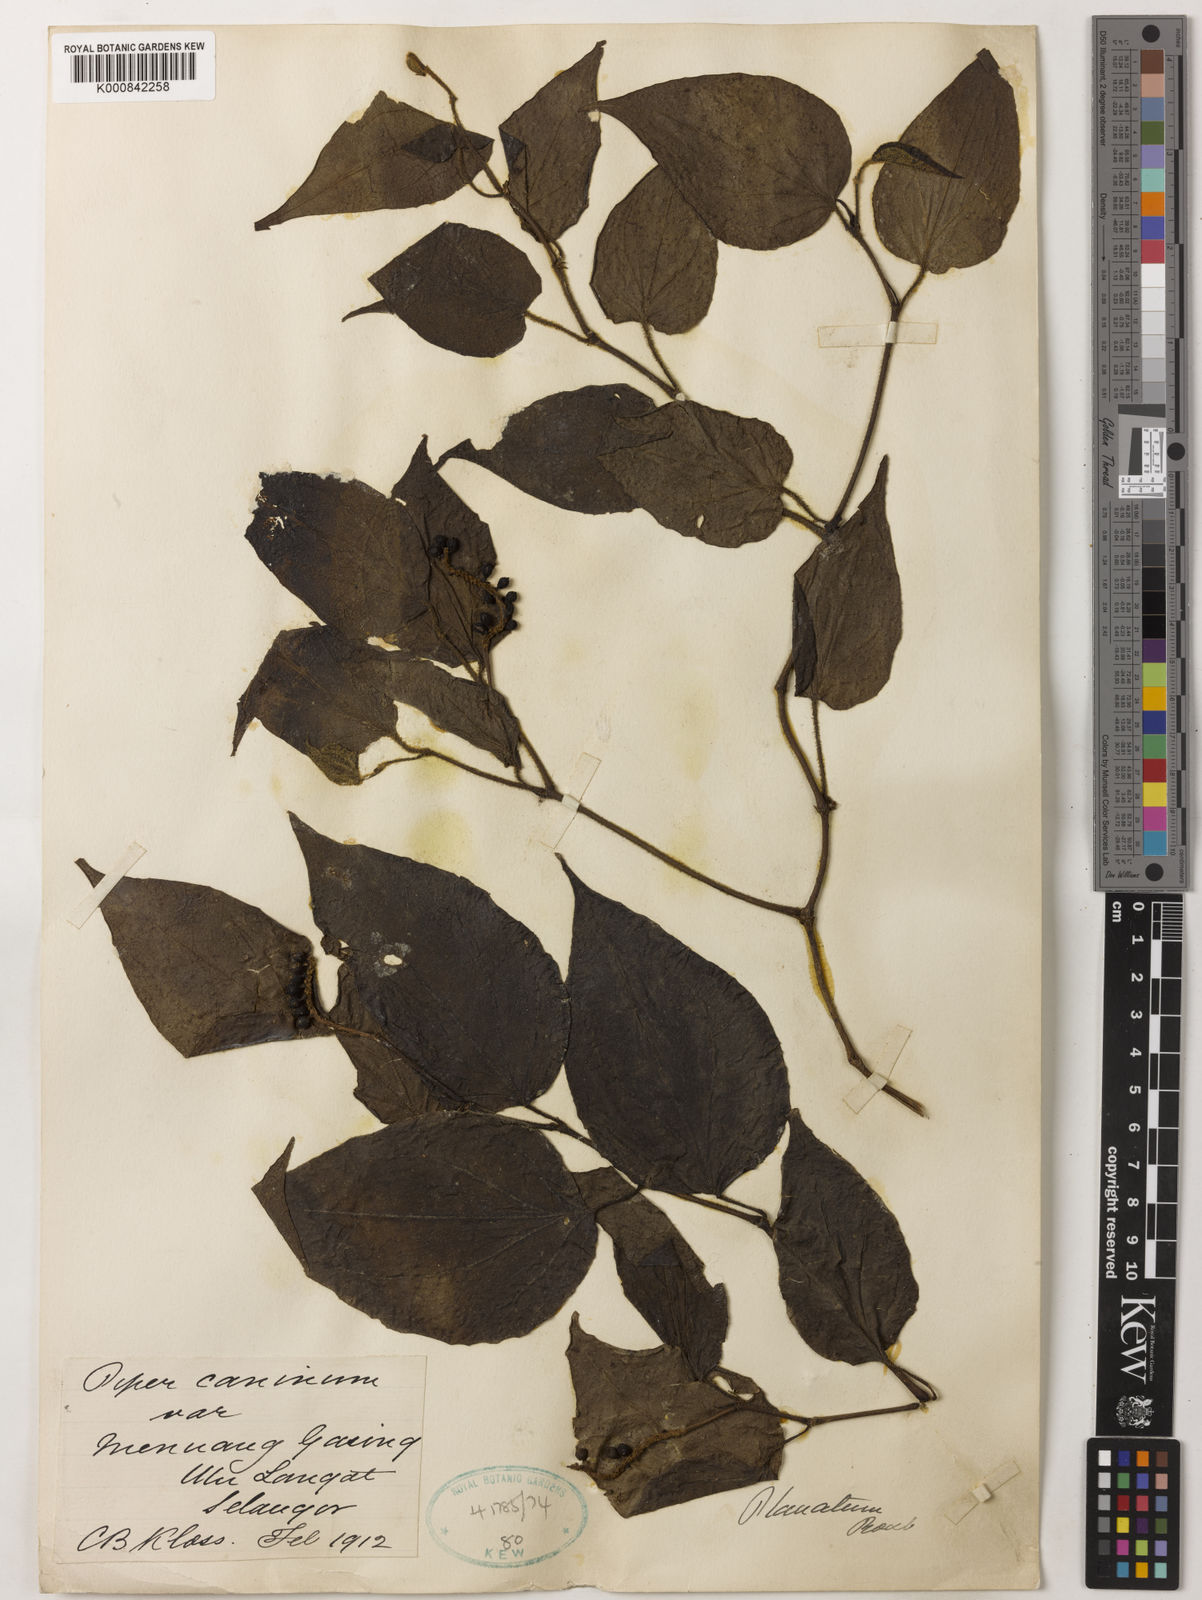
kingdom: Plantae
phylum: Tracheophyta
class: Magnoliopsida
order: Piperales
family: Piperaceae
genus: Piper
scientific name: Piper lanatum
